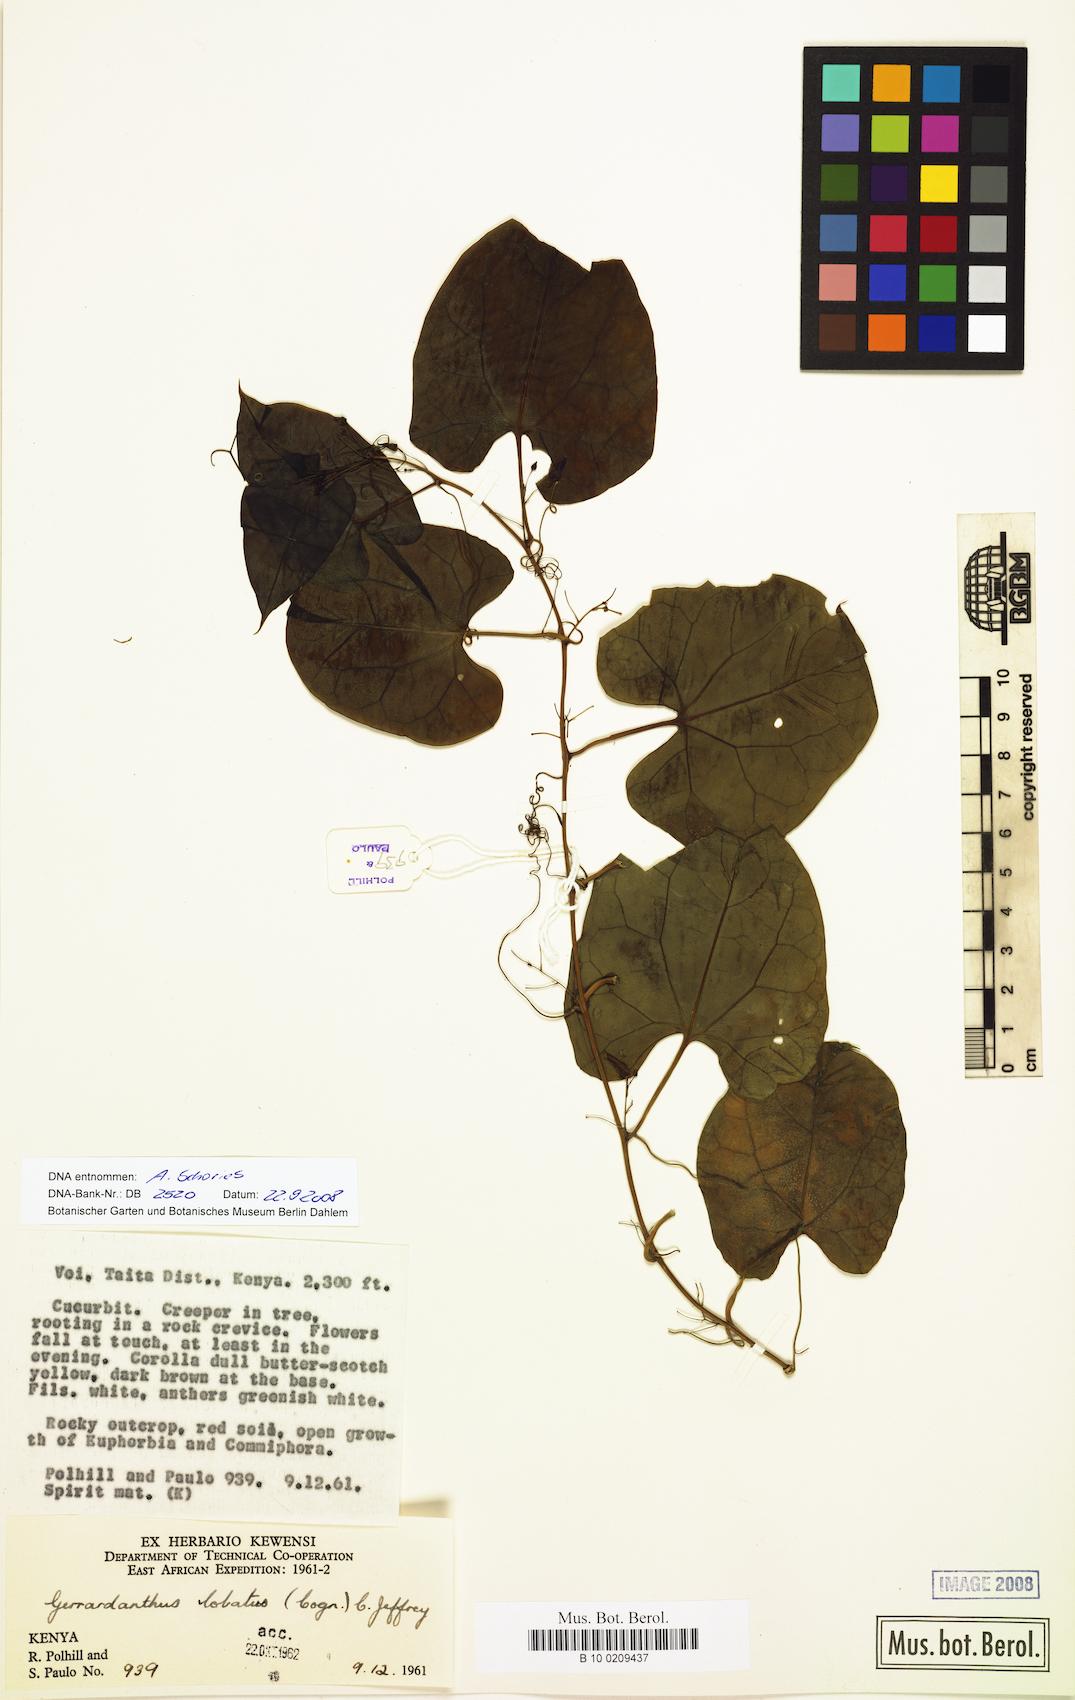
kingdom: Plantae
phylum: Tracheophyta
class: Magnoliopsida
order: Cucurbitales
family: Cucurbitaceae
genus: Gerrardanthus
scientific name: Gerrardanthus lobatus
